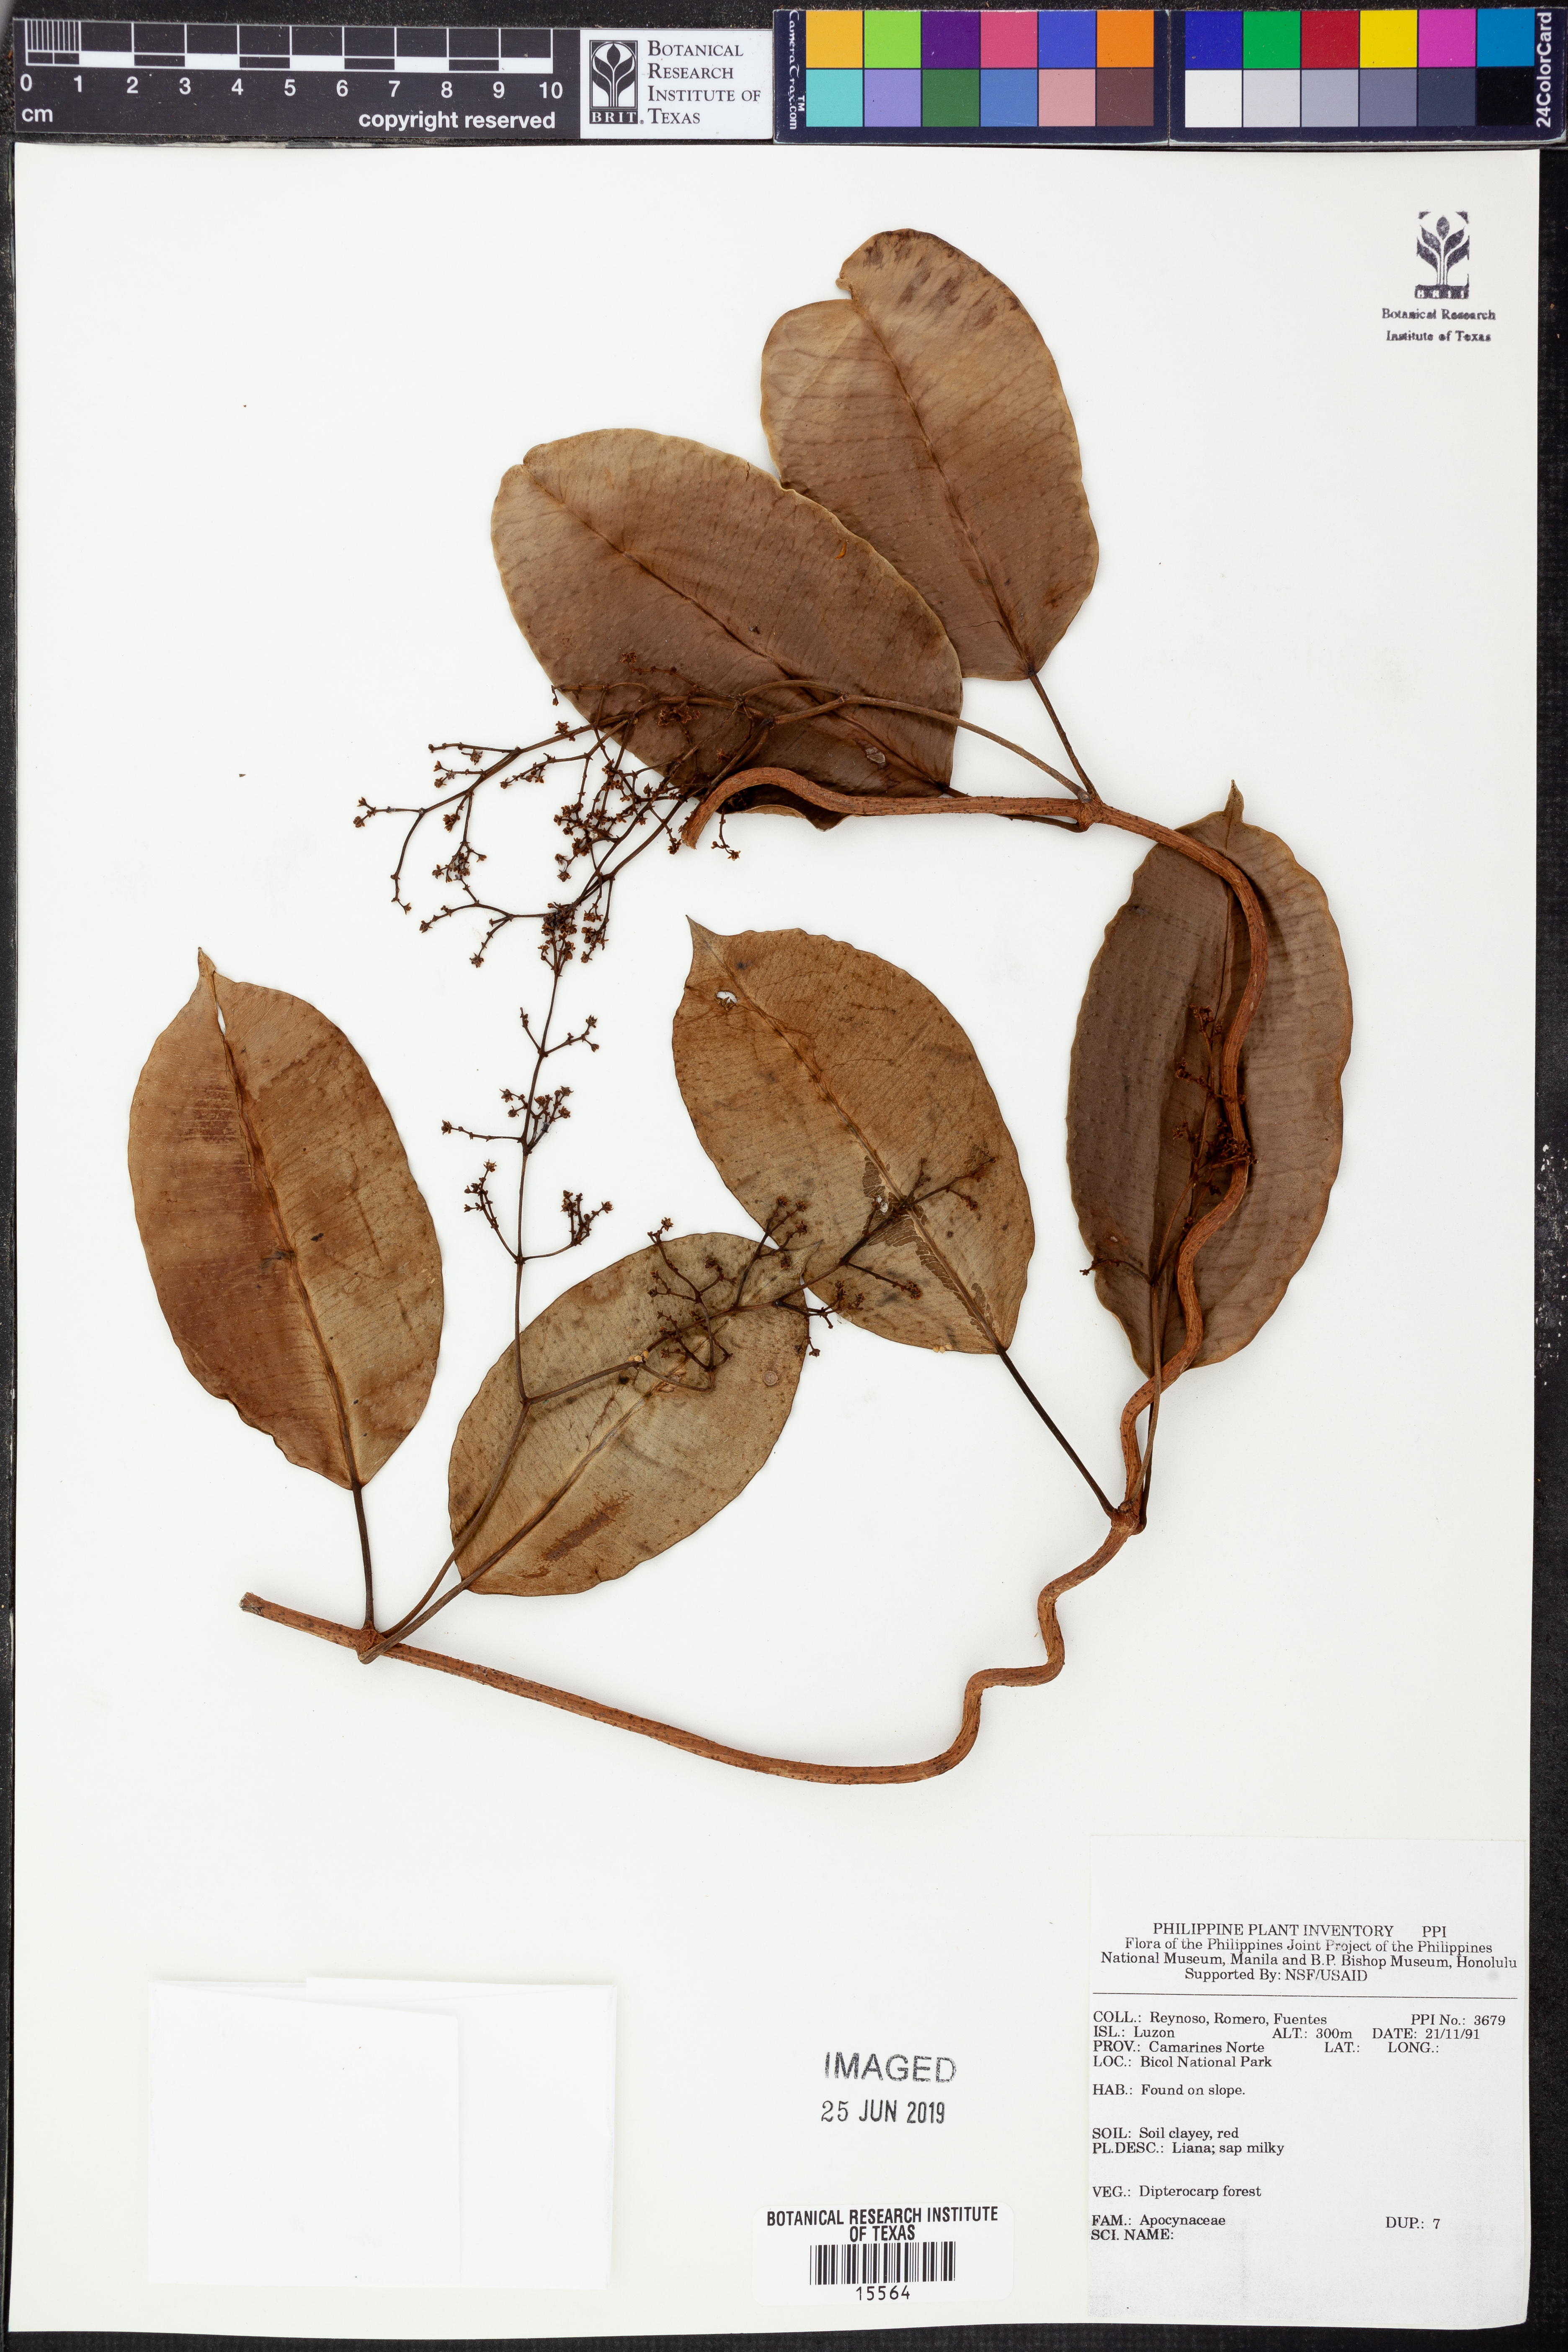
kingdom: Plantae
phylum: Tracheophyta
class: Magnoliopsida
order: Gentianales
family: Apocynaceae
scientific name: Apocynaceae
